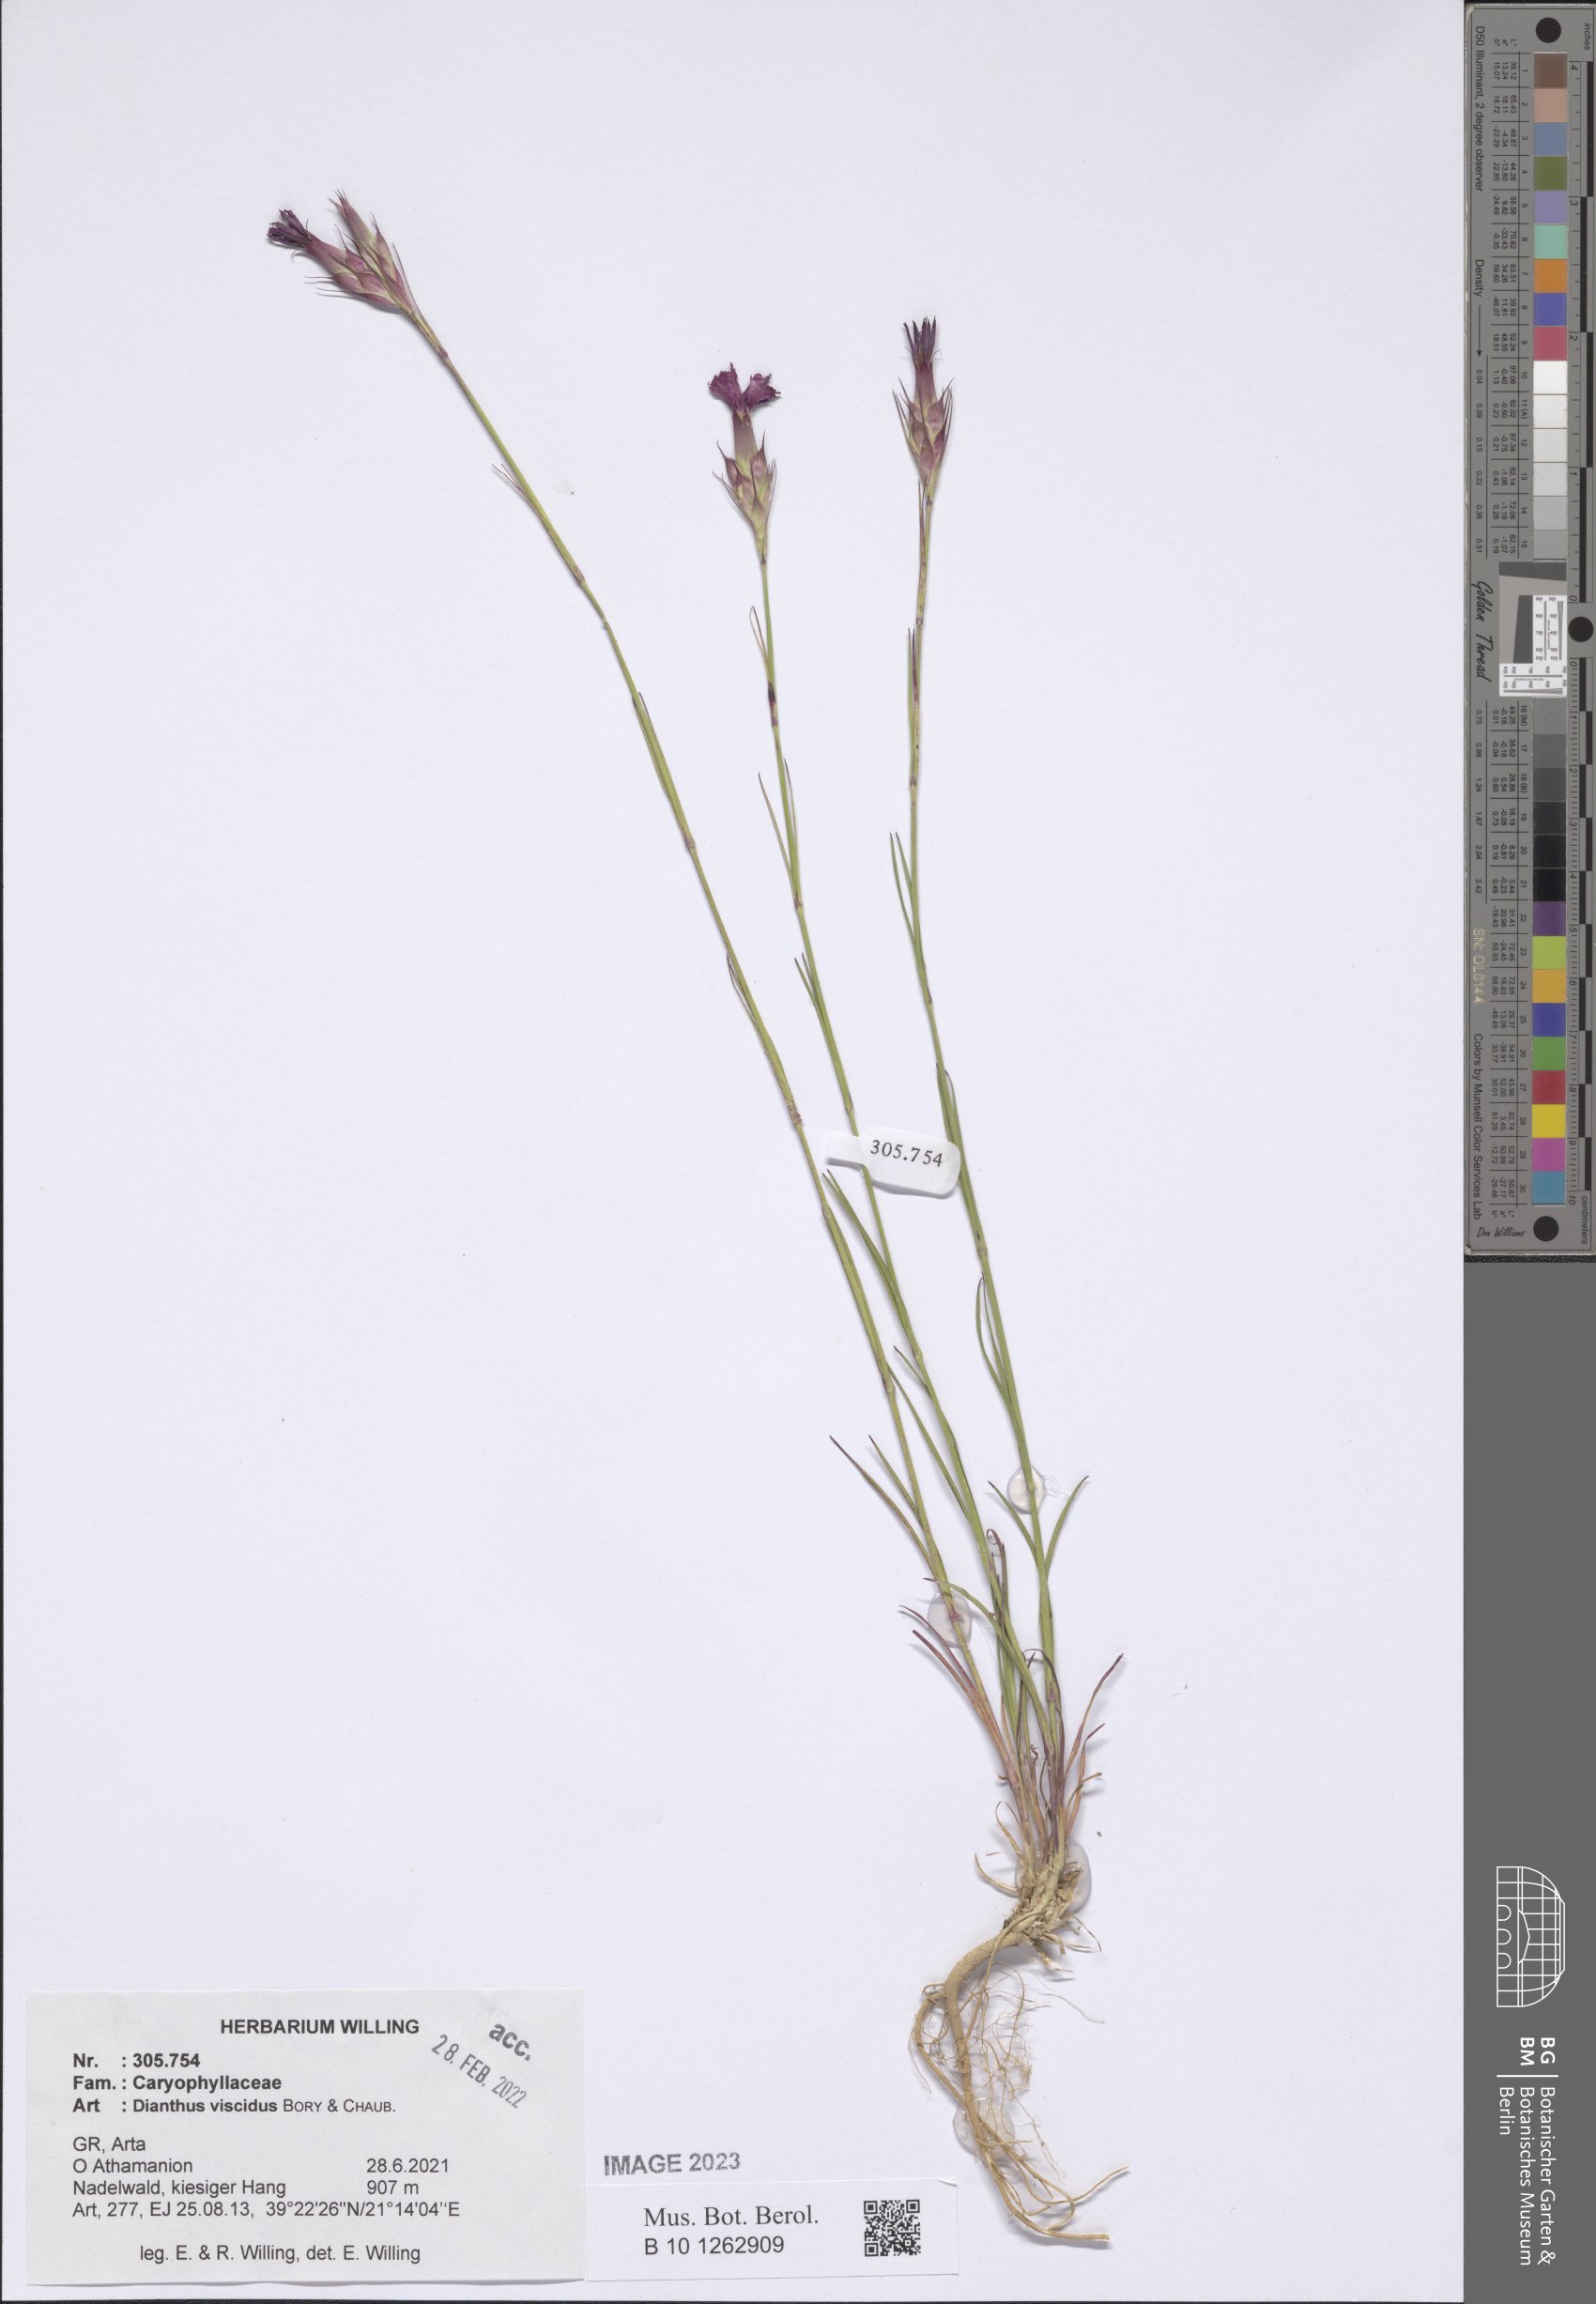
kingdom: Plantae
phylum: Tracheophyta
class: Magnoliopsida
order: Caryophyllales
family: Caryophyllaceae
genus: Dianthus
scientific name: Dianthus viscidus
